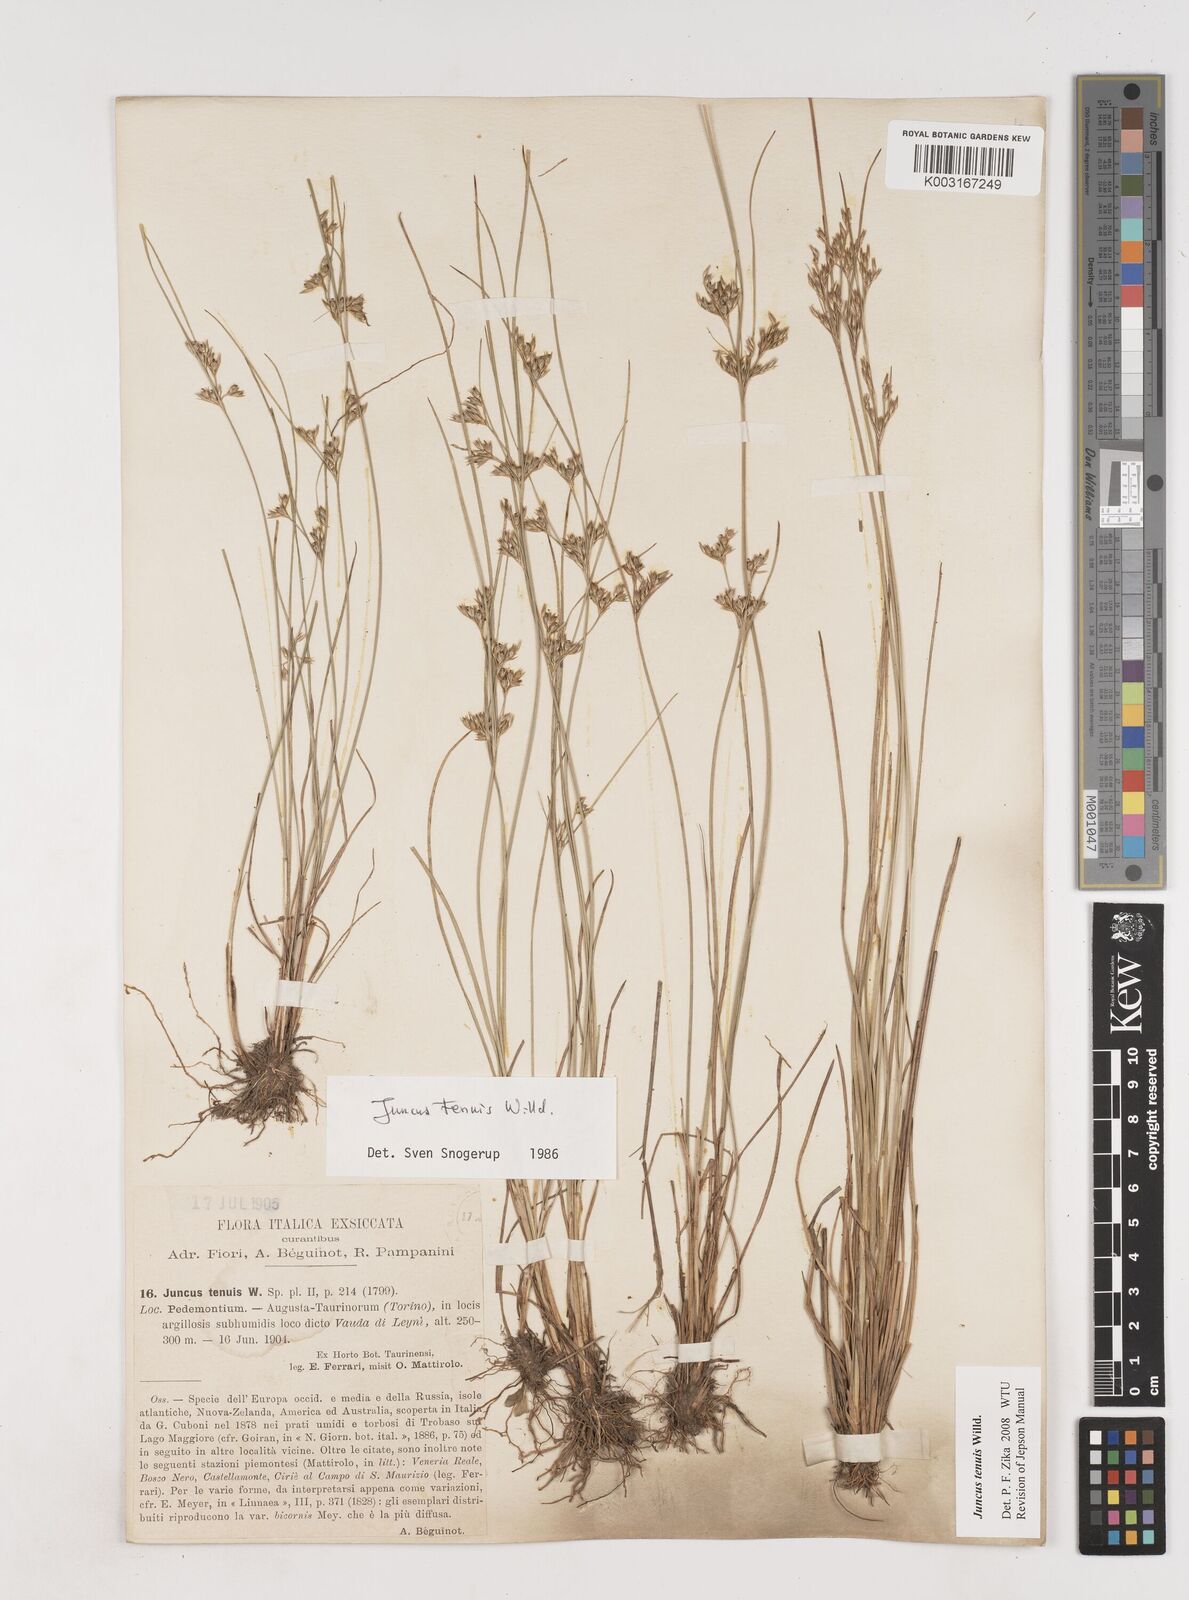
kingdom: Plantae
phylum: Tracheophyta
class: Liliopsida
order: Poales
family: Juncaceae
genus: Juncus
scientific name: Juncus tenuis
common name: Slender rush
